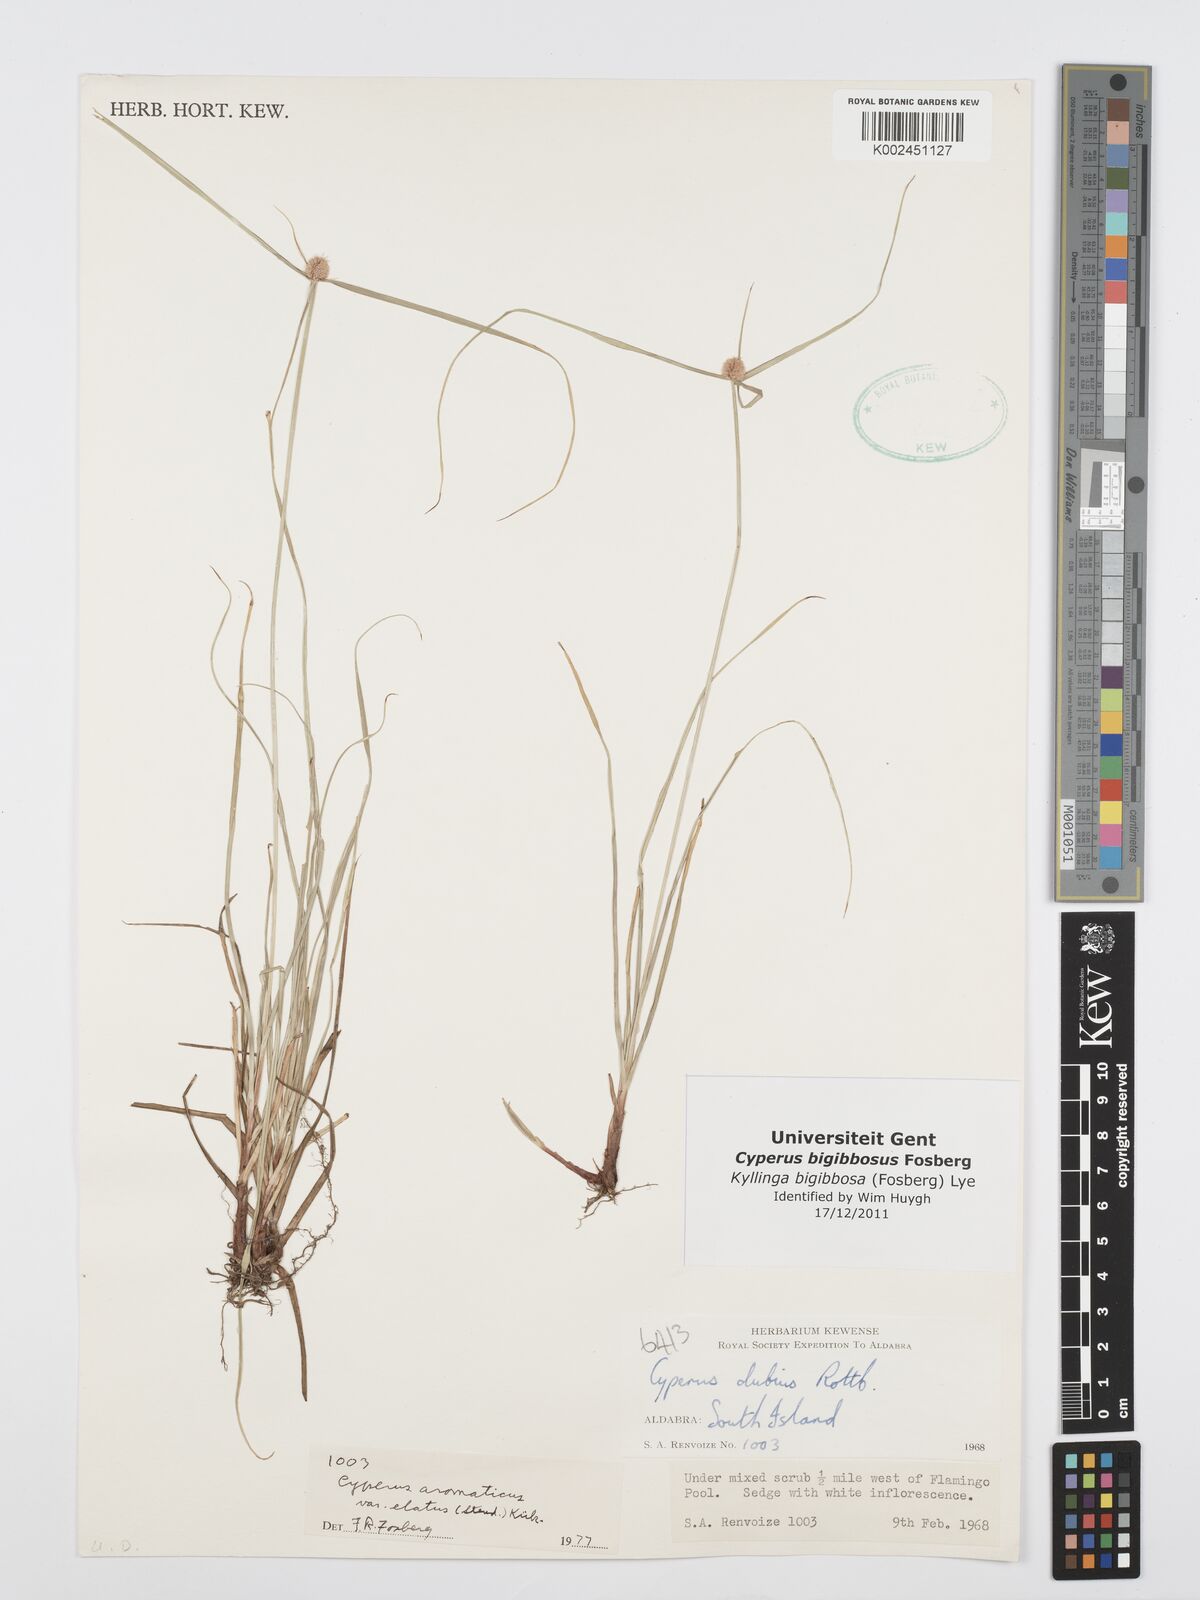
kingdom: Plantae
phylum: Tracheophyta
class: Liliopsida
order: Poales
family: Cyperaceae
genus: Cyperus
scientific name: Cyperus bigibbosa
